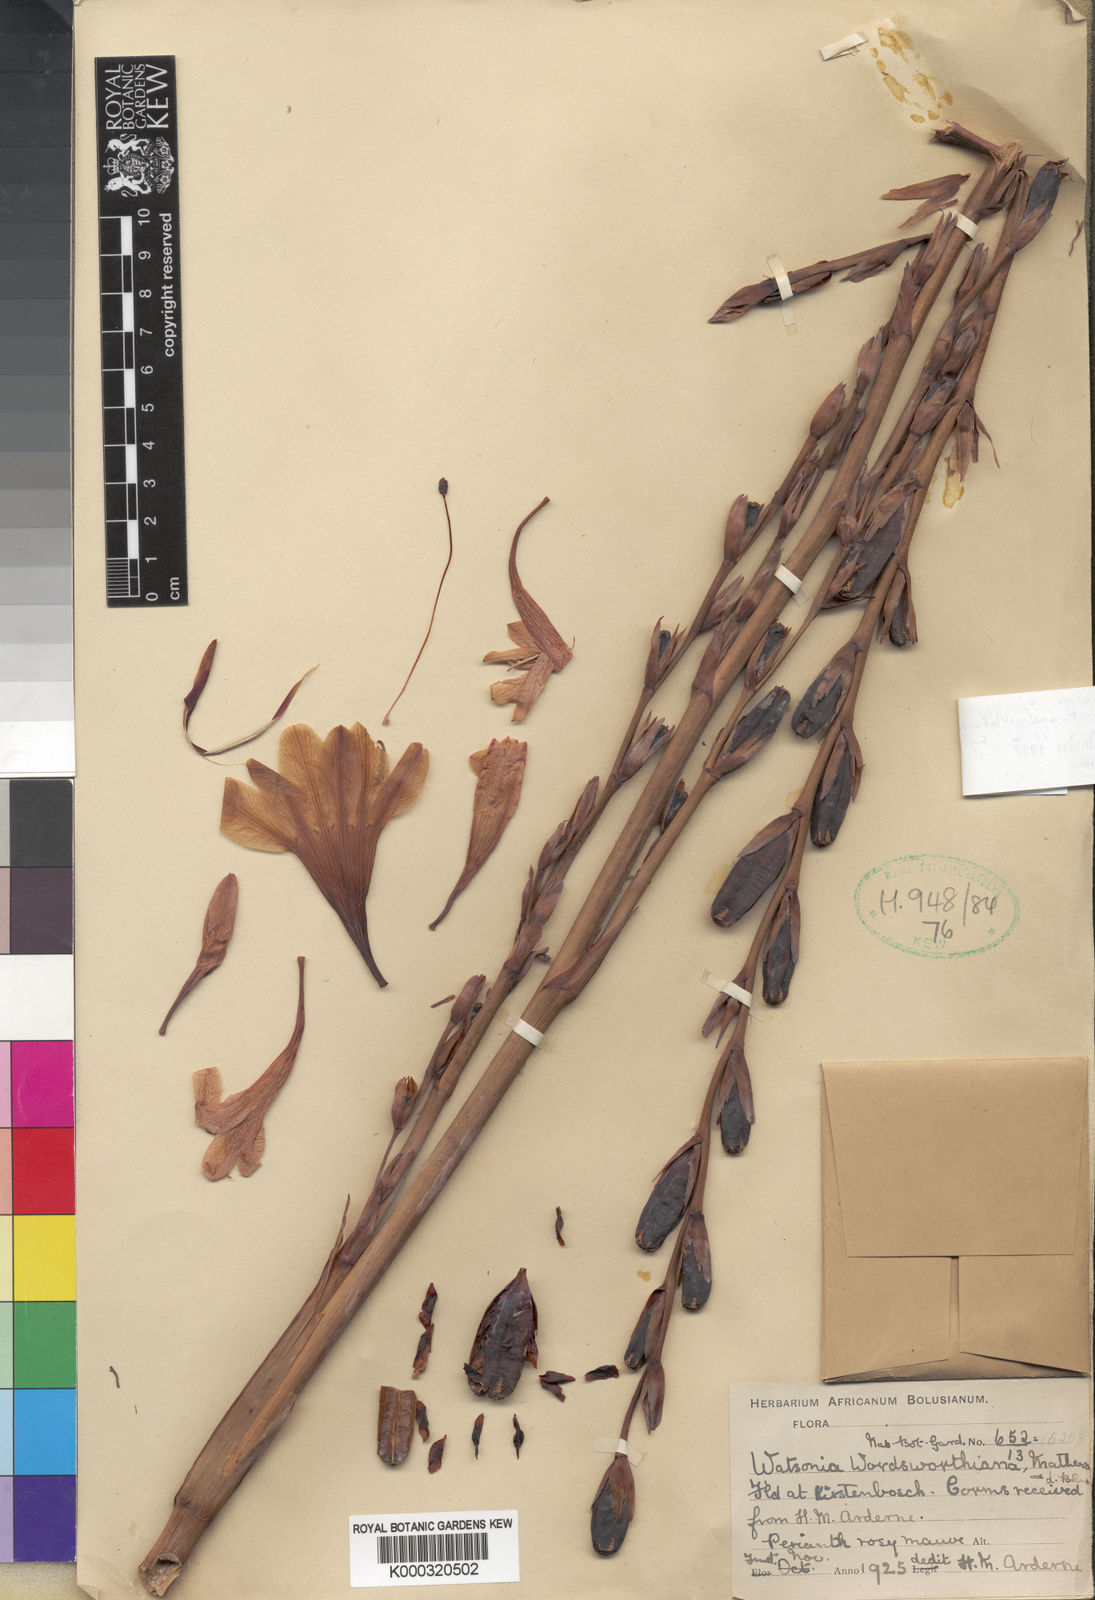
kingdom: Plantae
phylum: Tracheophyta
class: Liliopsida
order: Asparagales
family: Iridaceae
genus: Watsonia
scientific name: Watsonia meriana
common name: Bulbil bugle-lily
